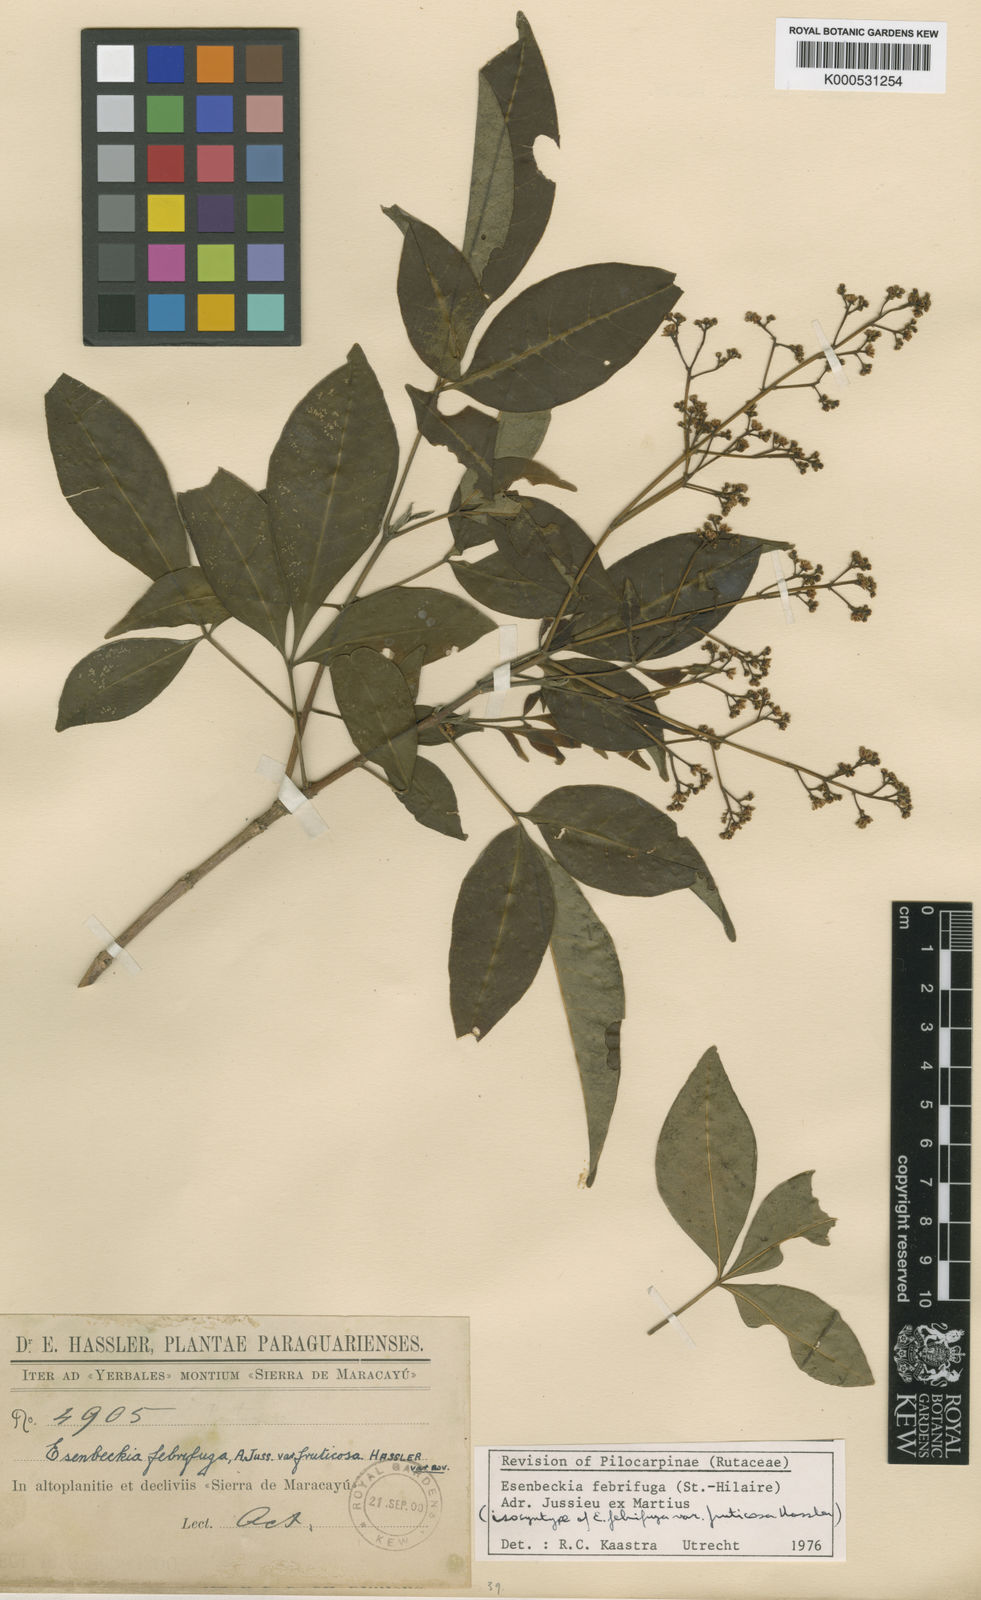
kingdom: Plantae
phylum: Tracheophyta
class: Magnoliopsida
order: Sapindales
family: Rutaceae
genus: Esenbeckia
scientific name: Esenbeckia febrifuga
